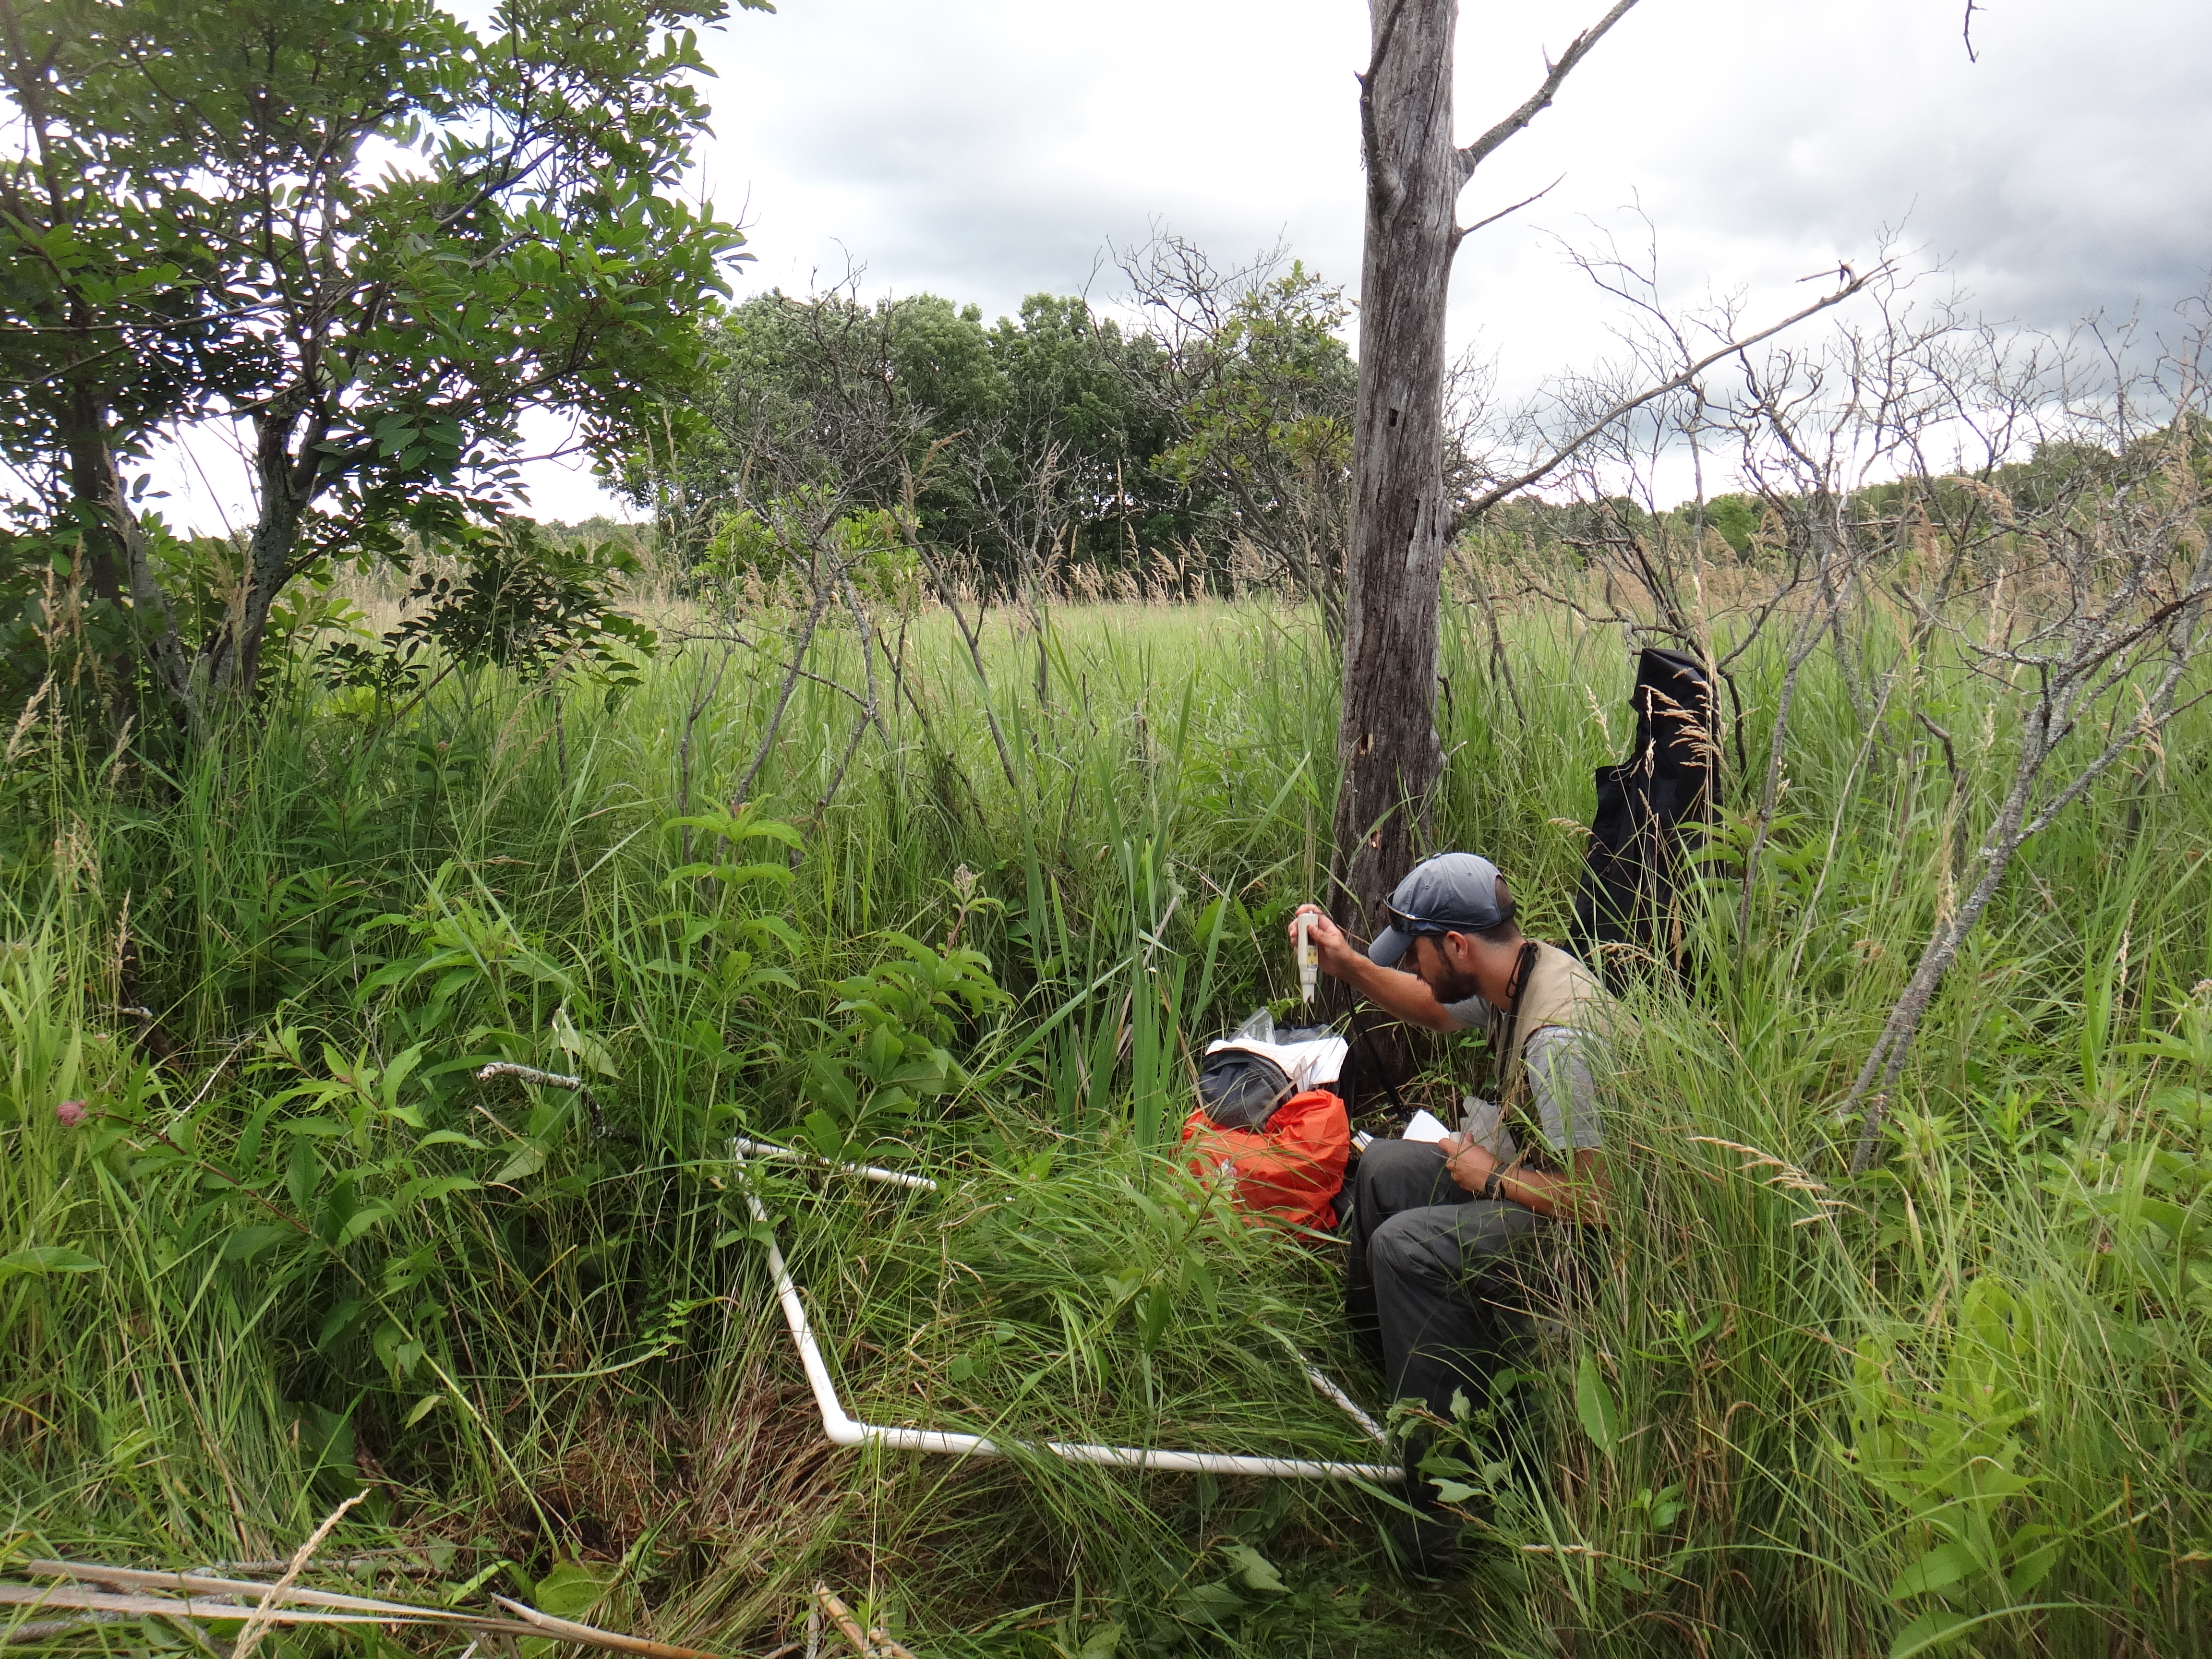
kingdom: Plantae
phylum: Tracheophyta
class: Liliopsida
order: Poales
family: Typhaceae
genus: Typha
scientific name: Typha latifolia
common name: Broadleaf cattail
